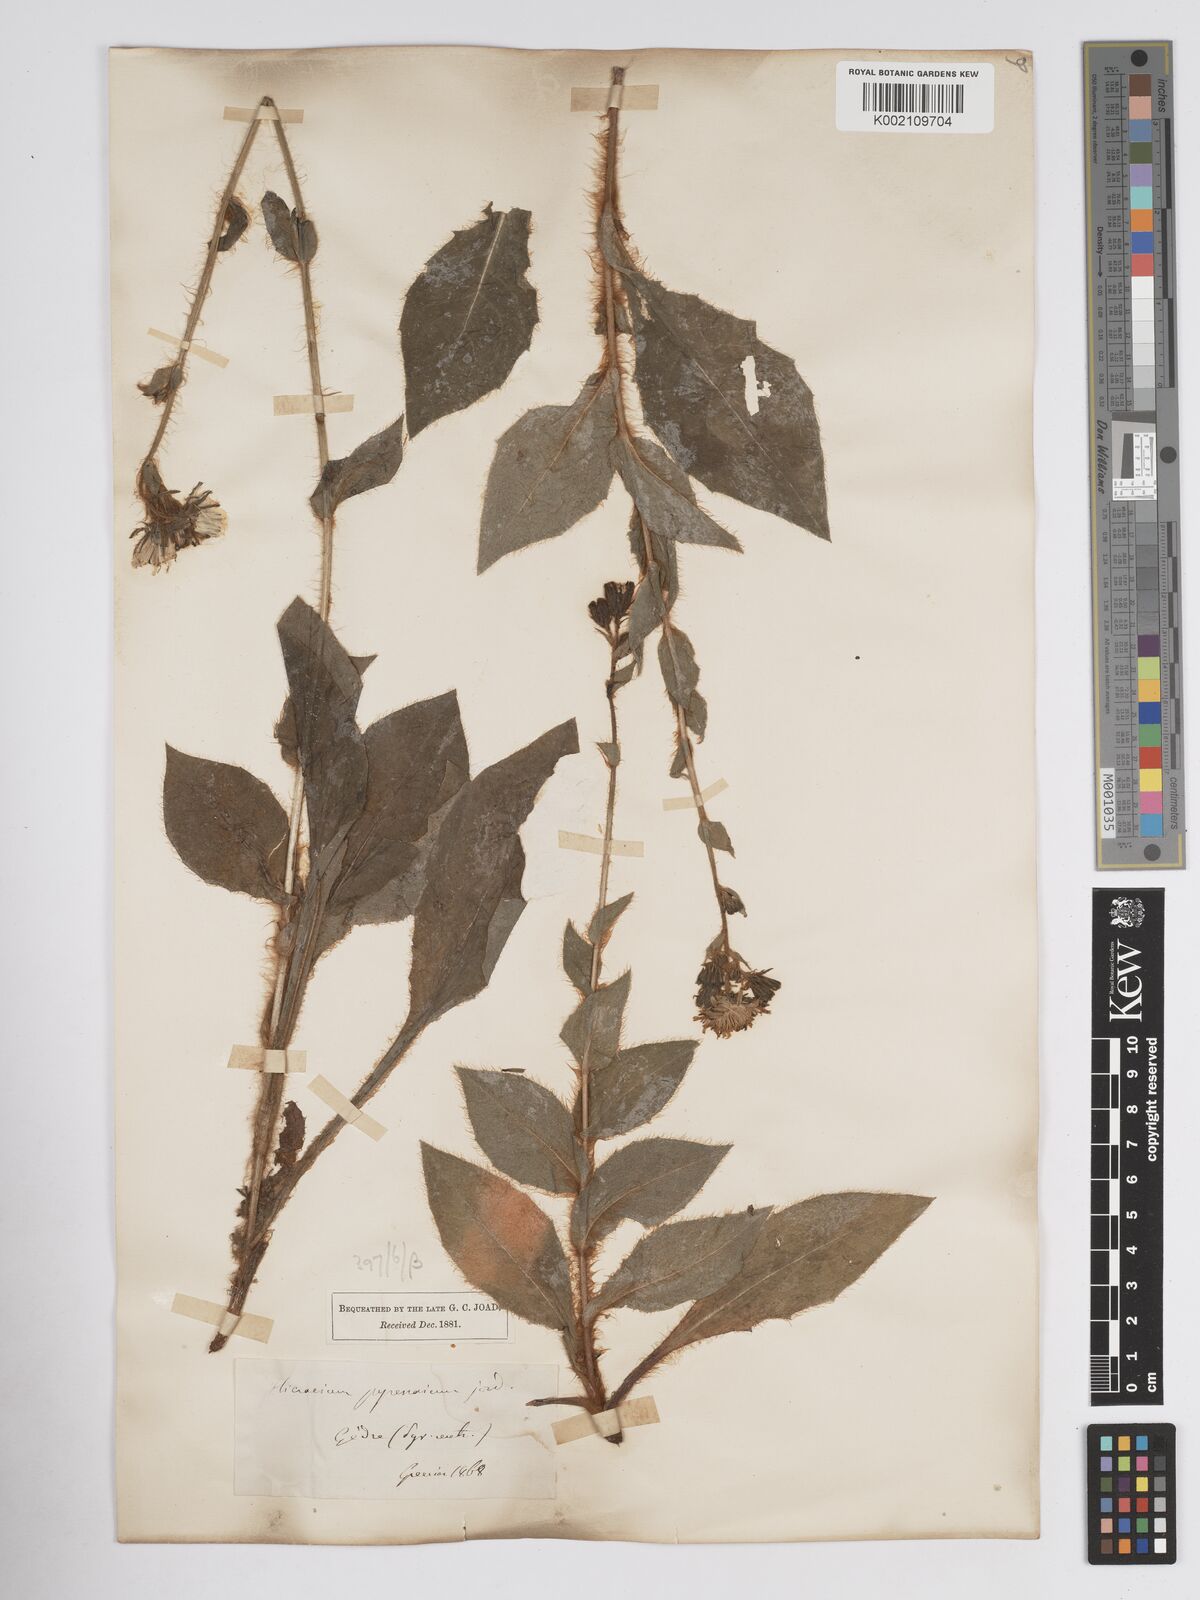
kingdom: Plantae
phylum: Tracheophyta
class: Magnoliopsida
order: Asterales
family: Asteraceae
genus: Crepis
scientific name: Crepis pyrenaica
